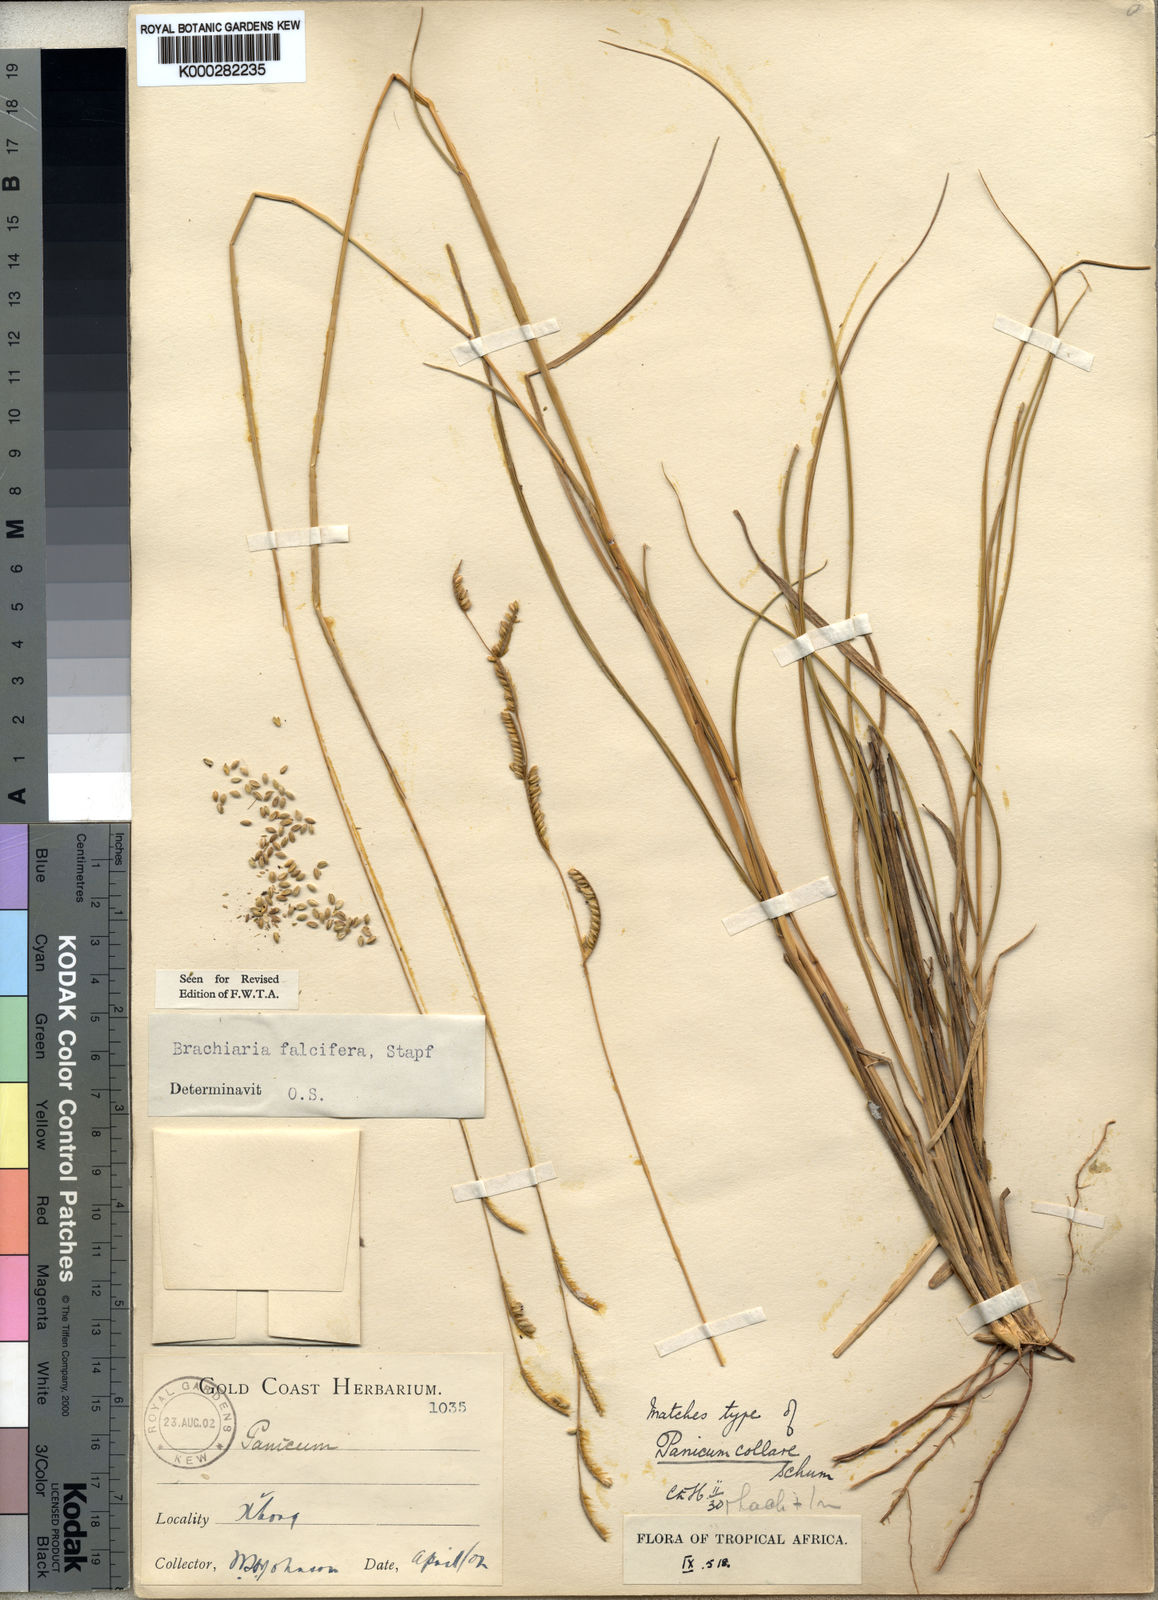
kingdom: Plantae
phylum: Tracheophyta
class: Liliopsida
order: Poales
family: Poaceae
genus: Urochloa
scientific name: Urochloa falcifera
